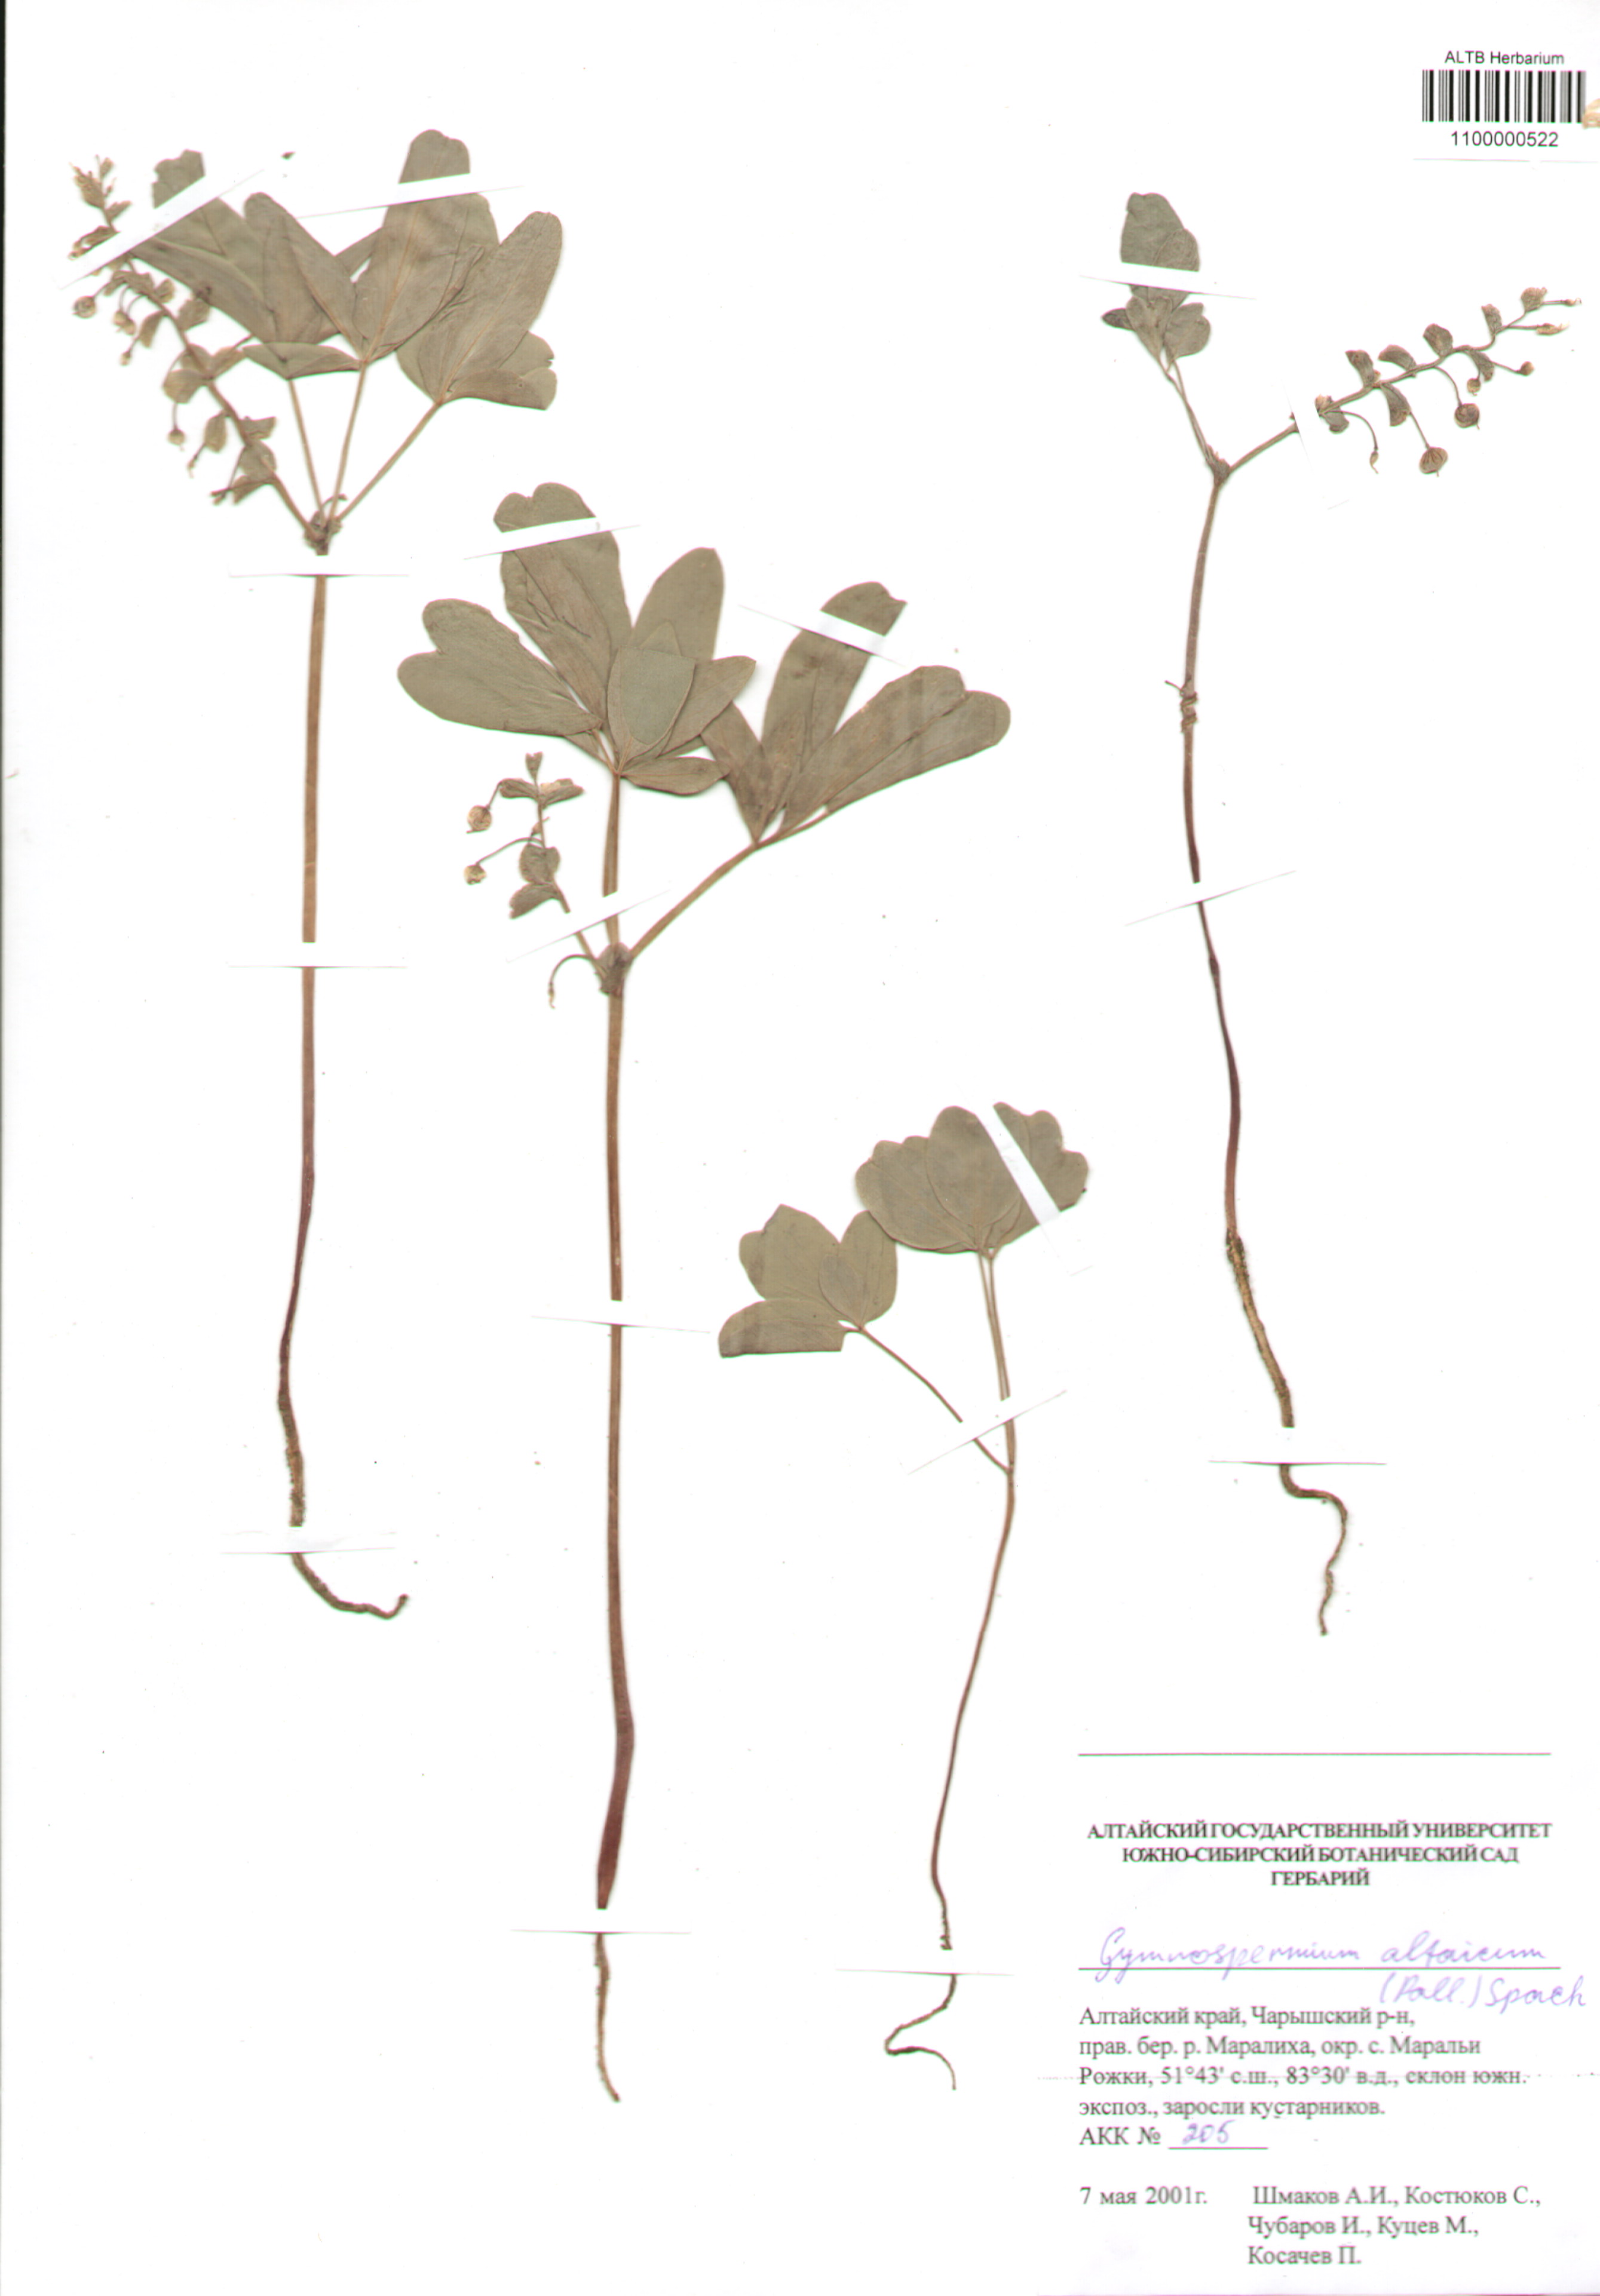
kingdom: Plantae
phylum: Tracheophyta
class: Magnoliopsida
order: Ranunculales
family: Berberidaceae
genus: Gymnospermium
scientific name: Gymnospermium altaicum
